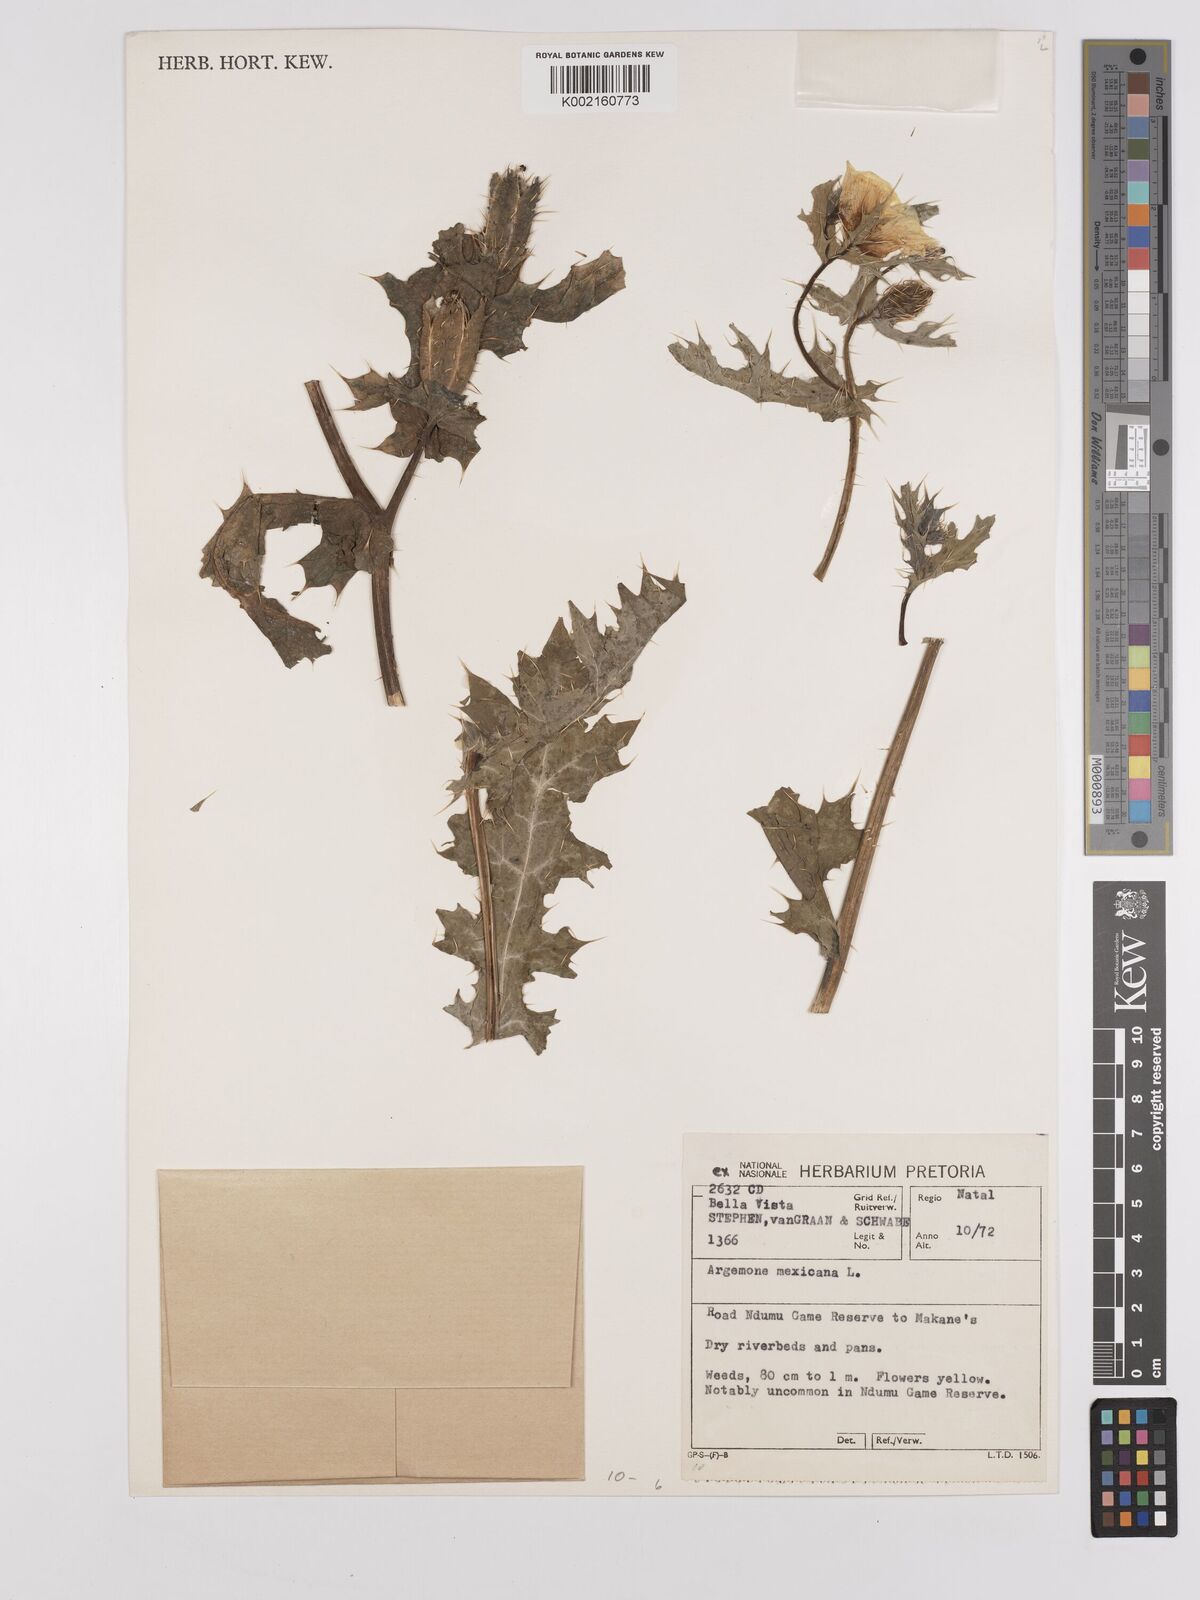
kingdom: Plantae
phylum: Tracheophyta
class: Magnoliopsida
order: Ranunculales
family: Papaveraceae
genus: Argemone
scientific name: Argemone mexicana
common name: Mexican poppy
